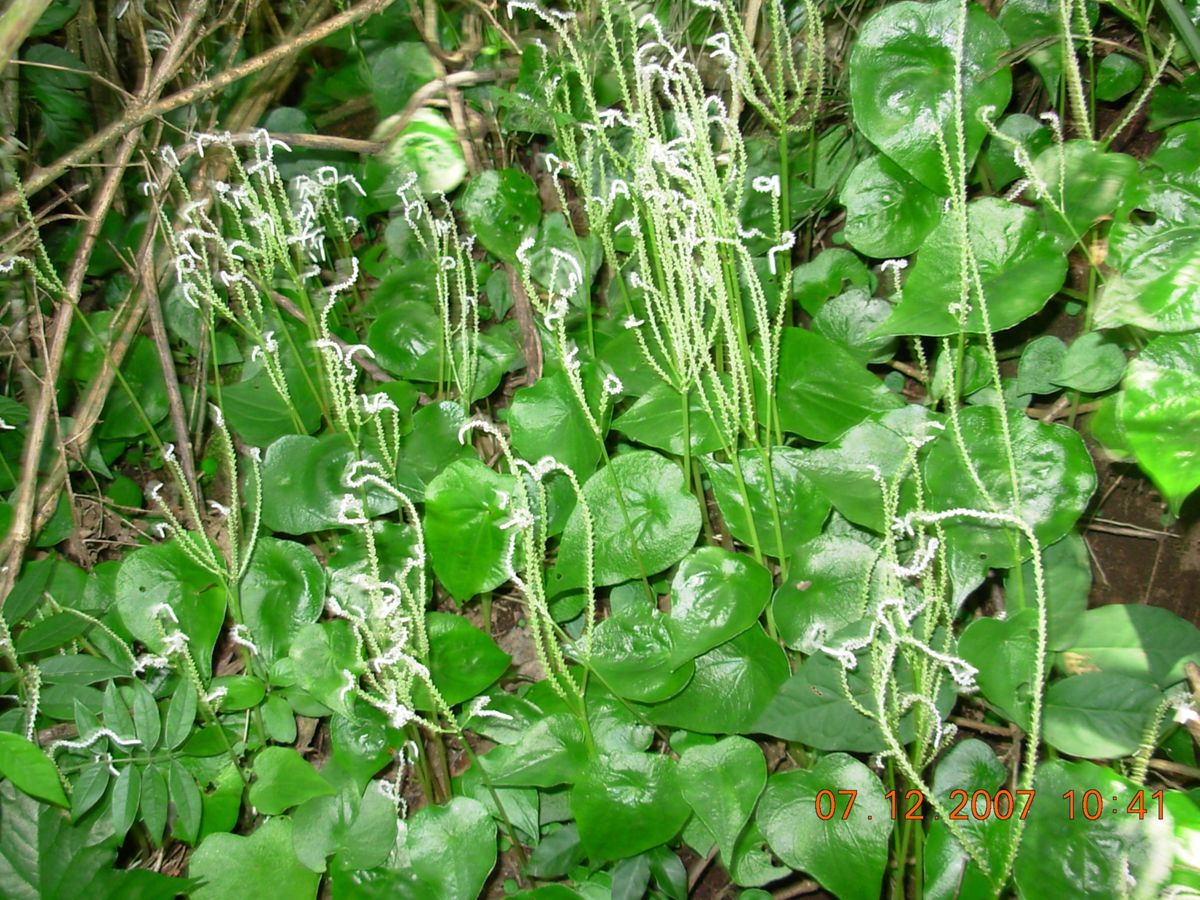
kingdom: Plantae
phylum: Tracheophyta
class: Magnoliopsida
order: Piperales
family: Piperaceae
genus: Peperomia
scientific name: Peperomia claytonioides
